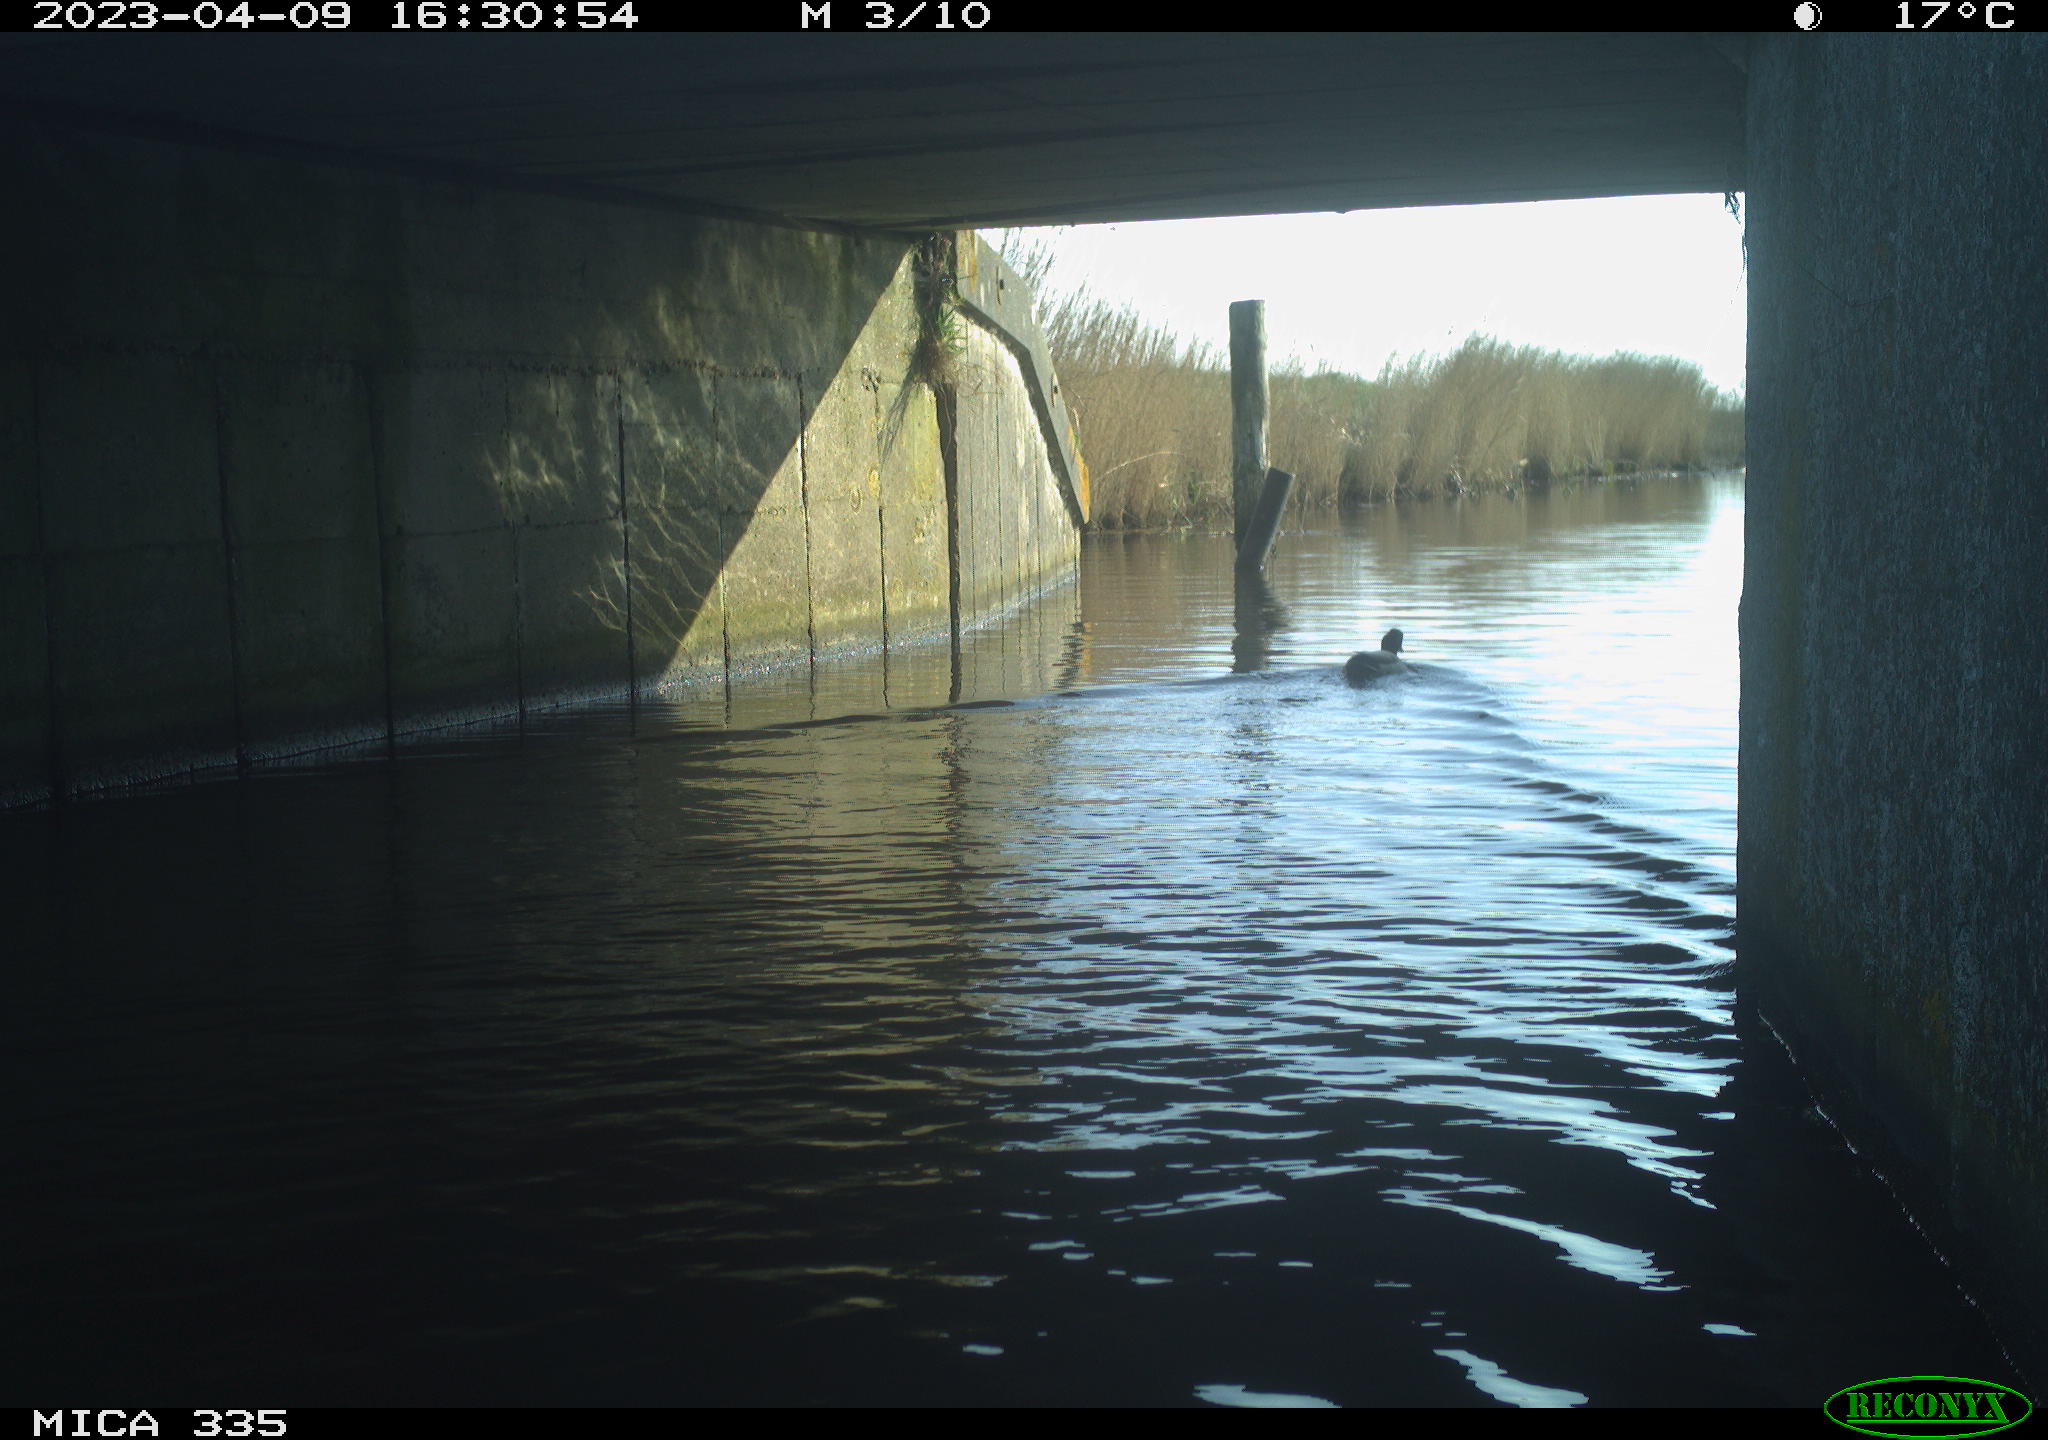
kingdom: Animalia
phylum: Chordata
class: Aves
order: Anseriformes
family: Anatidae
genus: Anas
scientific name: Anas
